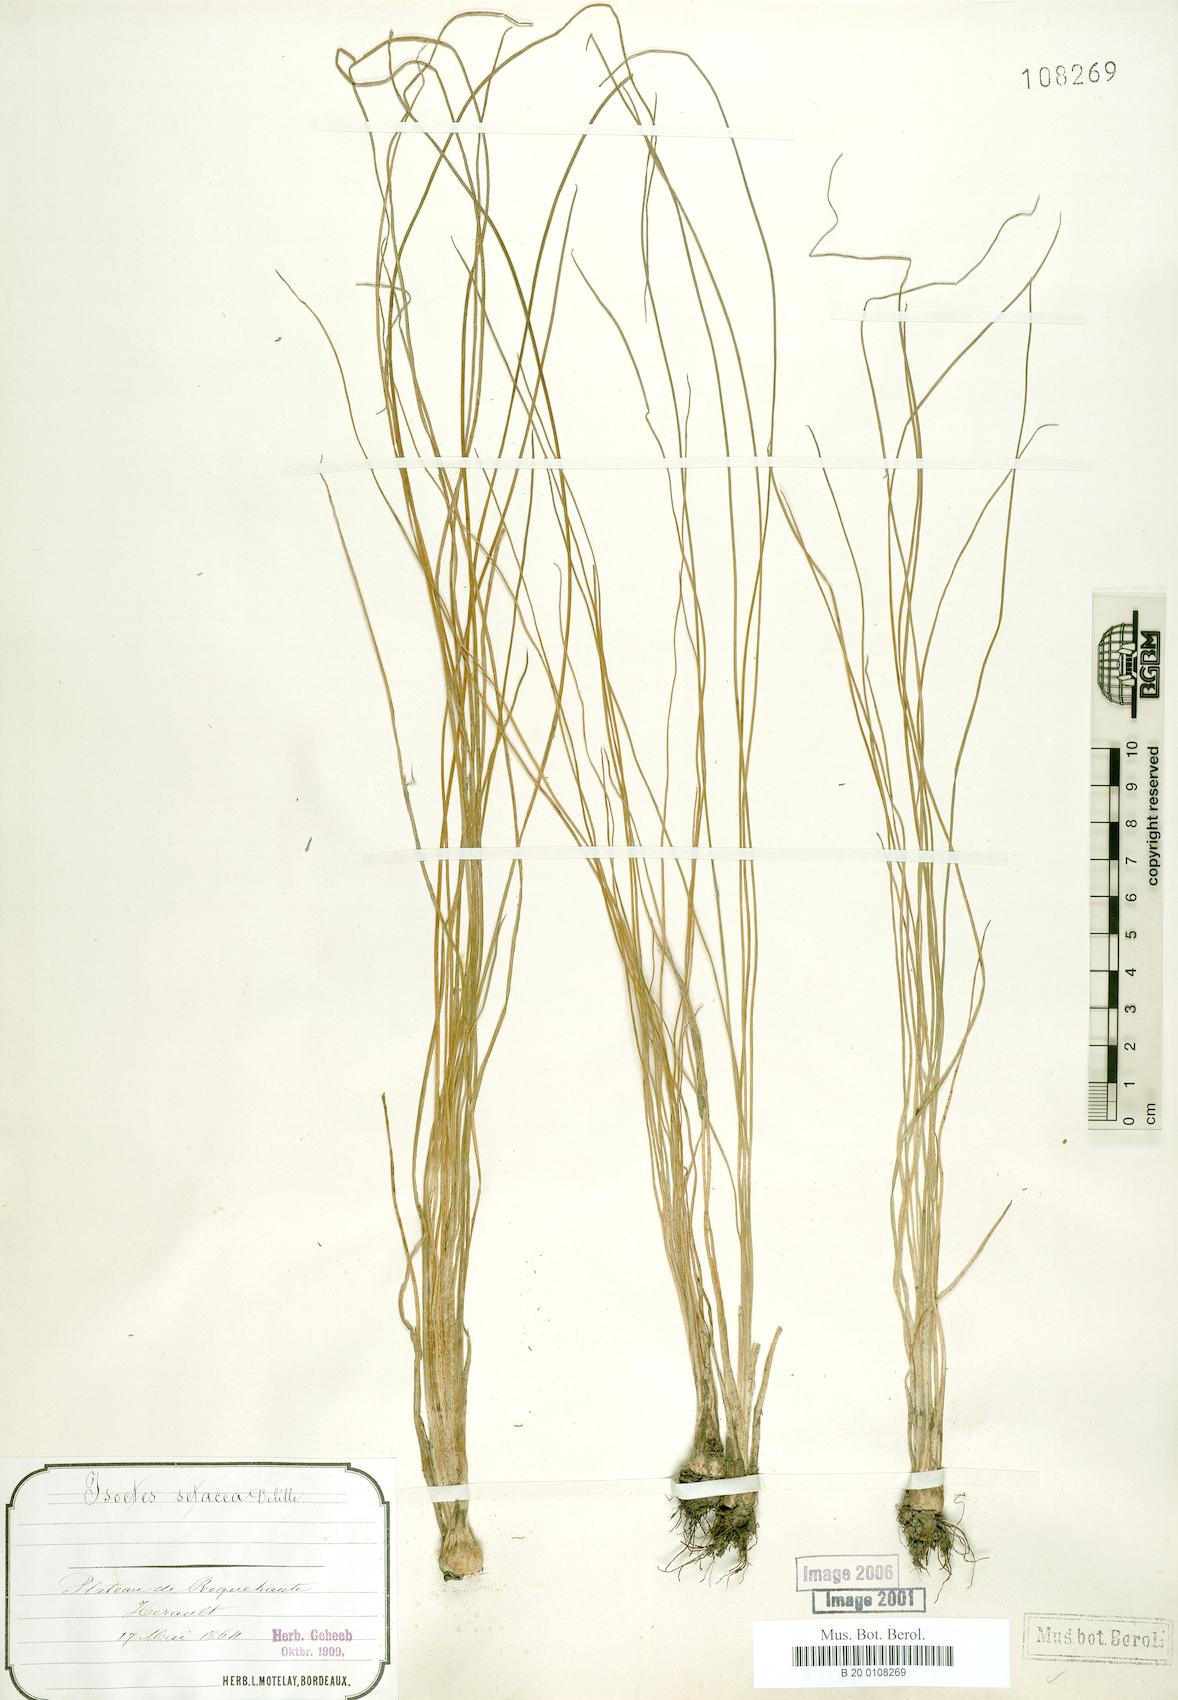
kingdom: Plantae
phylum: Tracheophyta
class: Lycopodiopsida
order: Isoetales
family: Isoetaceae
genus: Isoetes
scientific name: Isoetes lacustris
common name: Common quillwort
